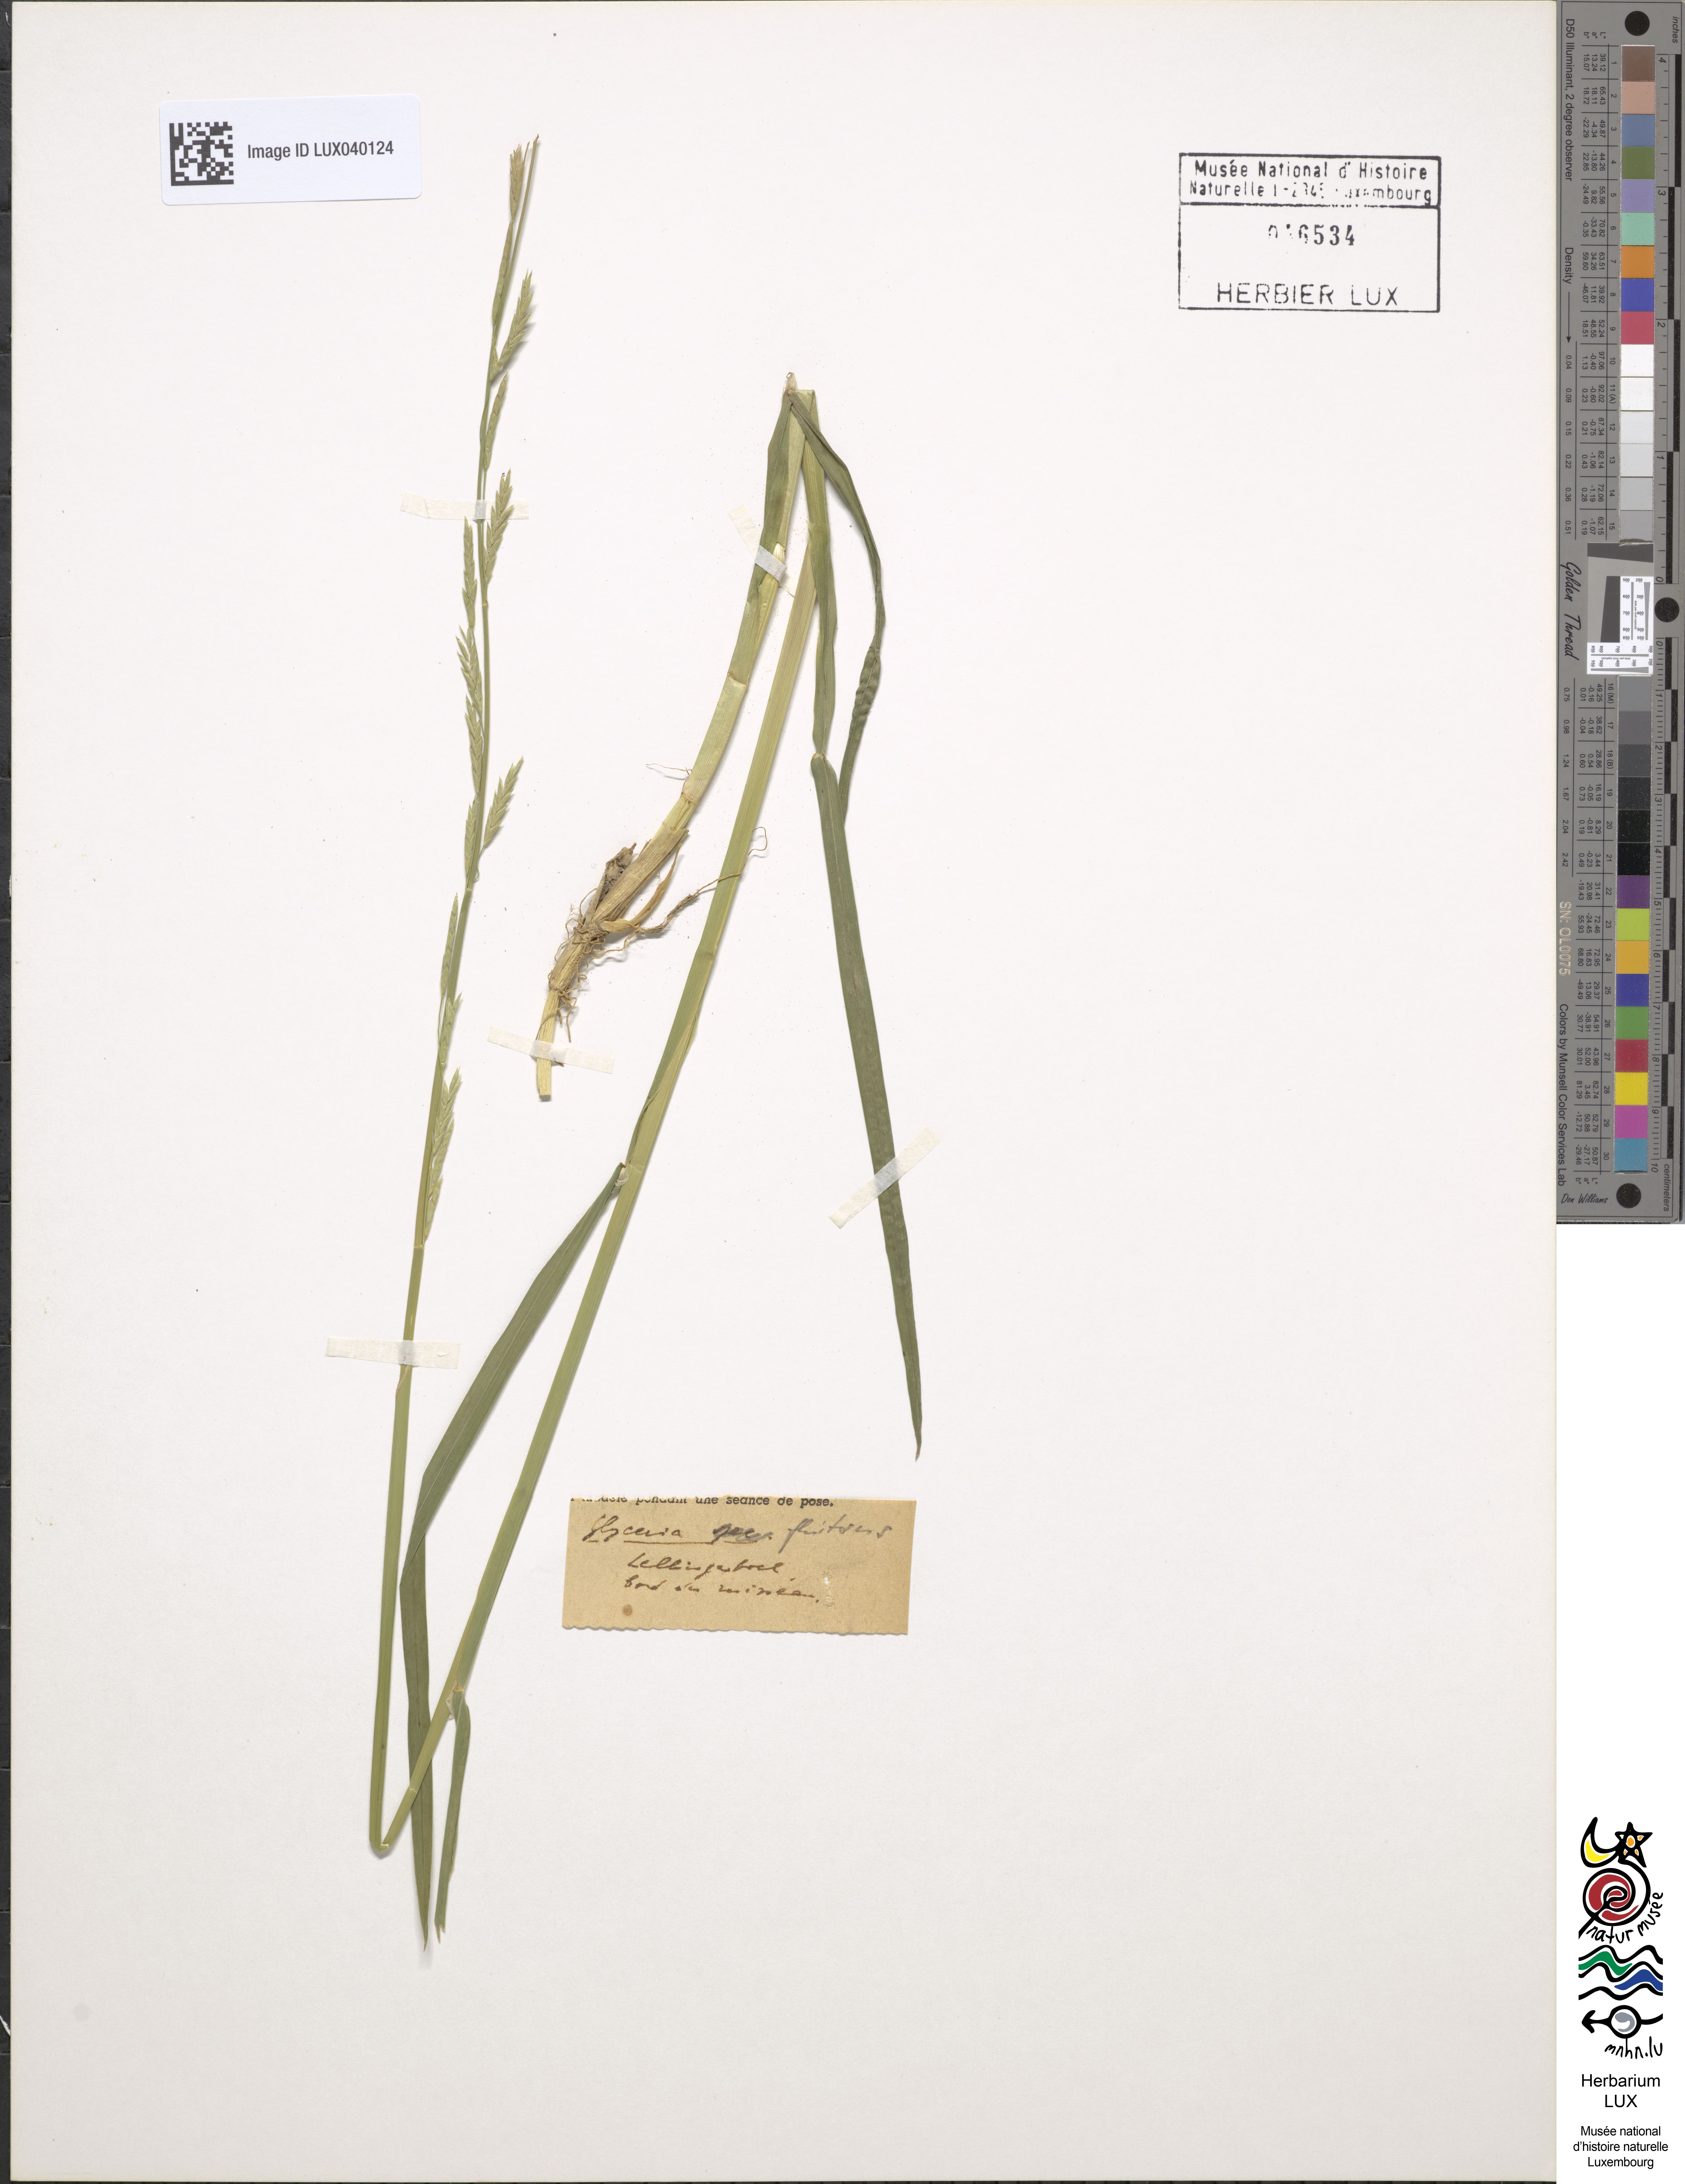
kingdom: Plantae
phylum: Tracheophyta
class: Liliopsida
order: Poales
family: Poaceae
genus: Glyceria
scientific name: Glyceria fluitans
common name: Floating sweet-grass
